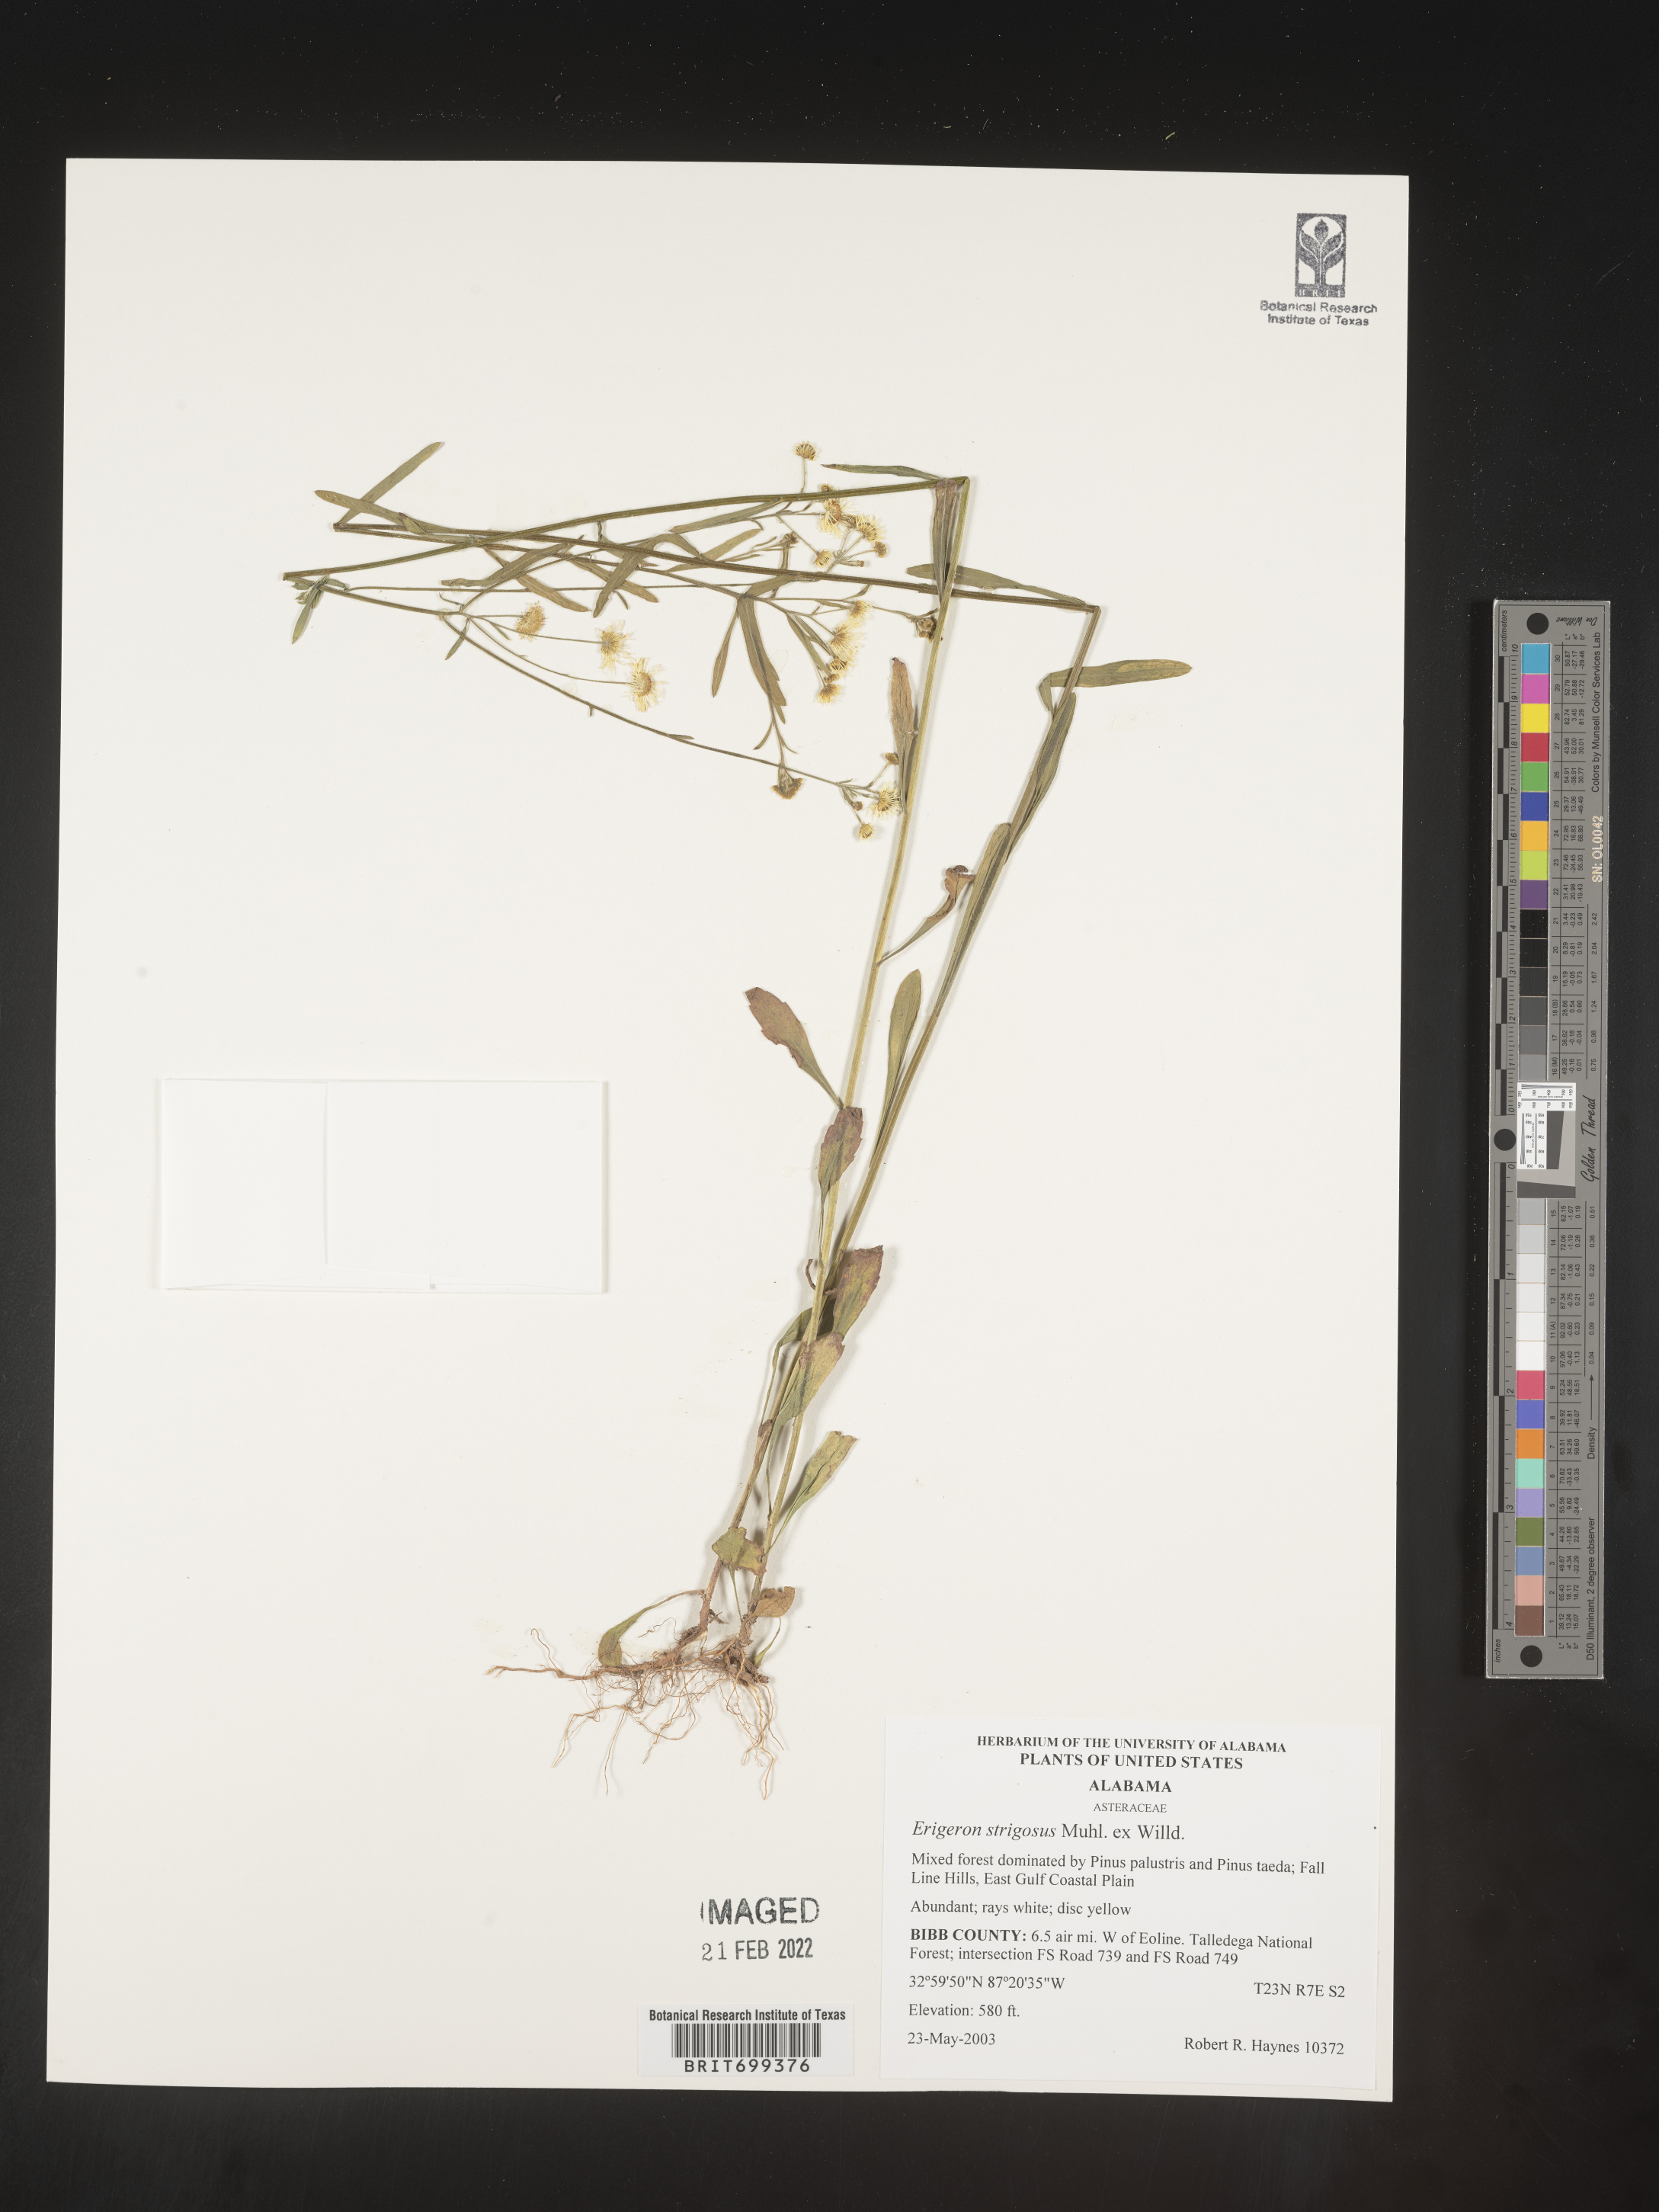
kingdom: Plantae
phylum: Tracheophyta
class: Magnoliopsida
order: Asterales
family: Asteraceae
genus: Erigeron
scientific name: Erigeron strigosus
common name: Common eastern fleabane
